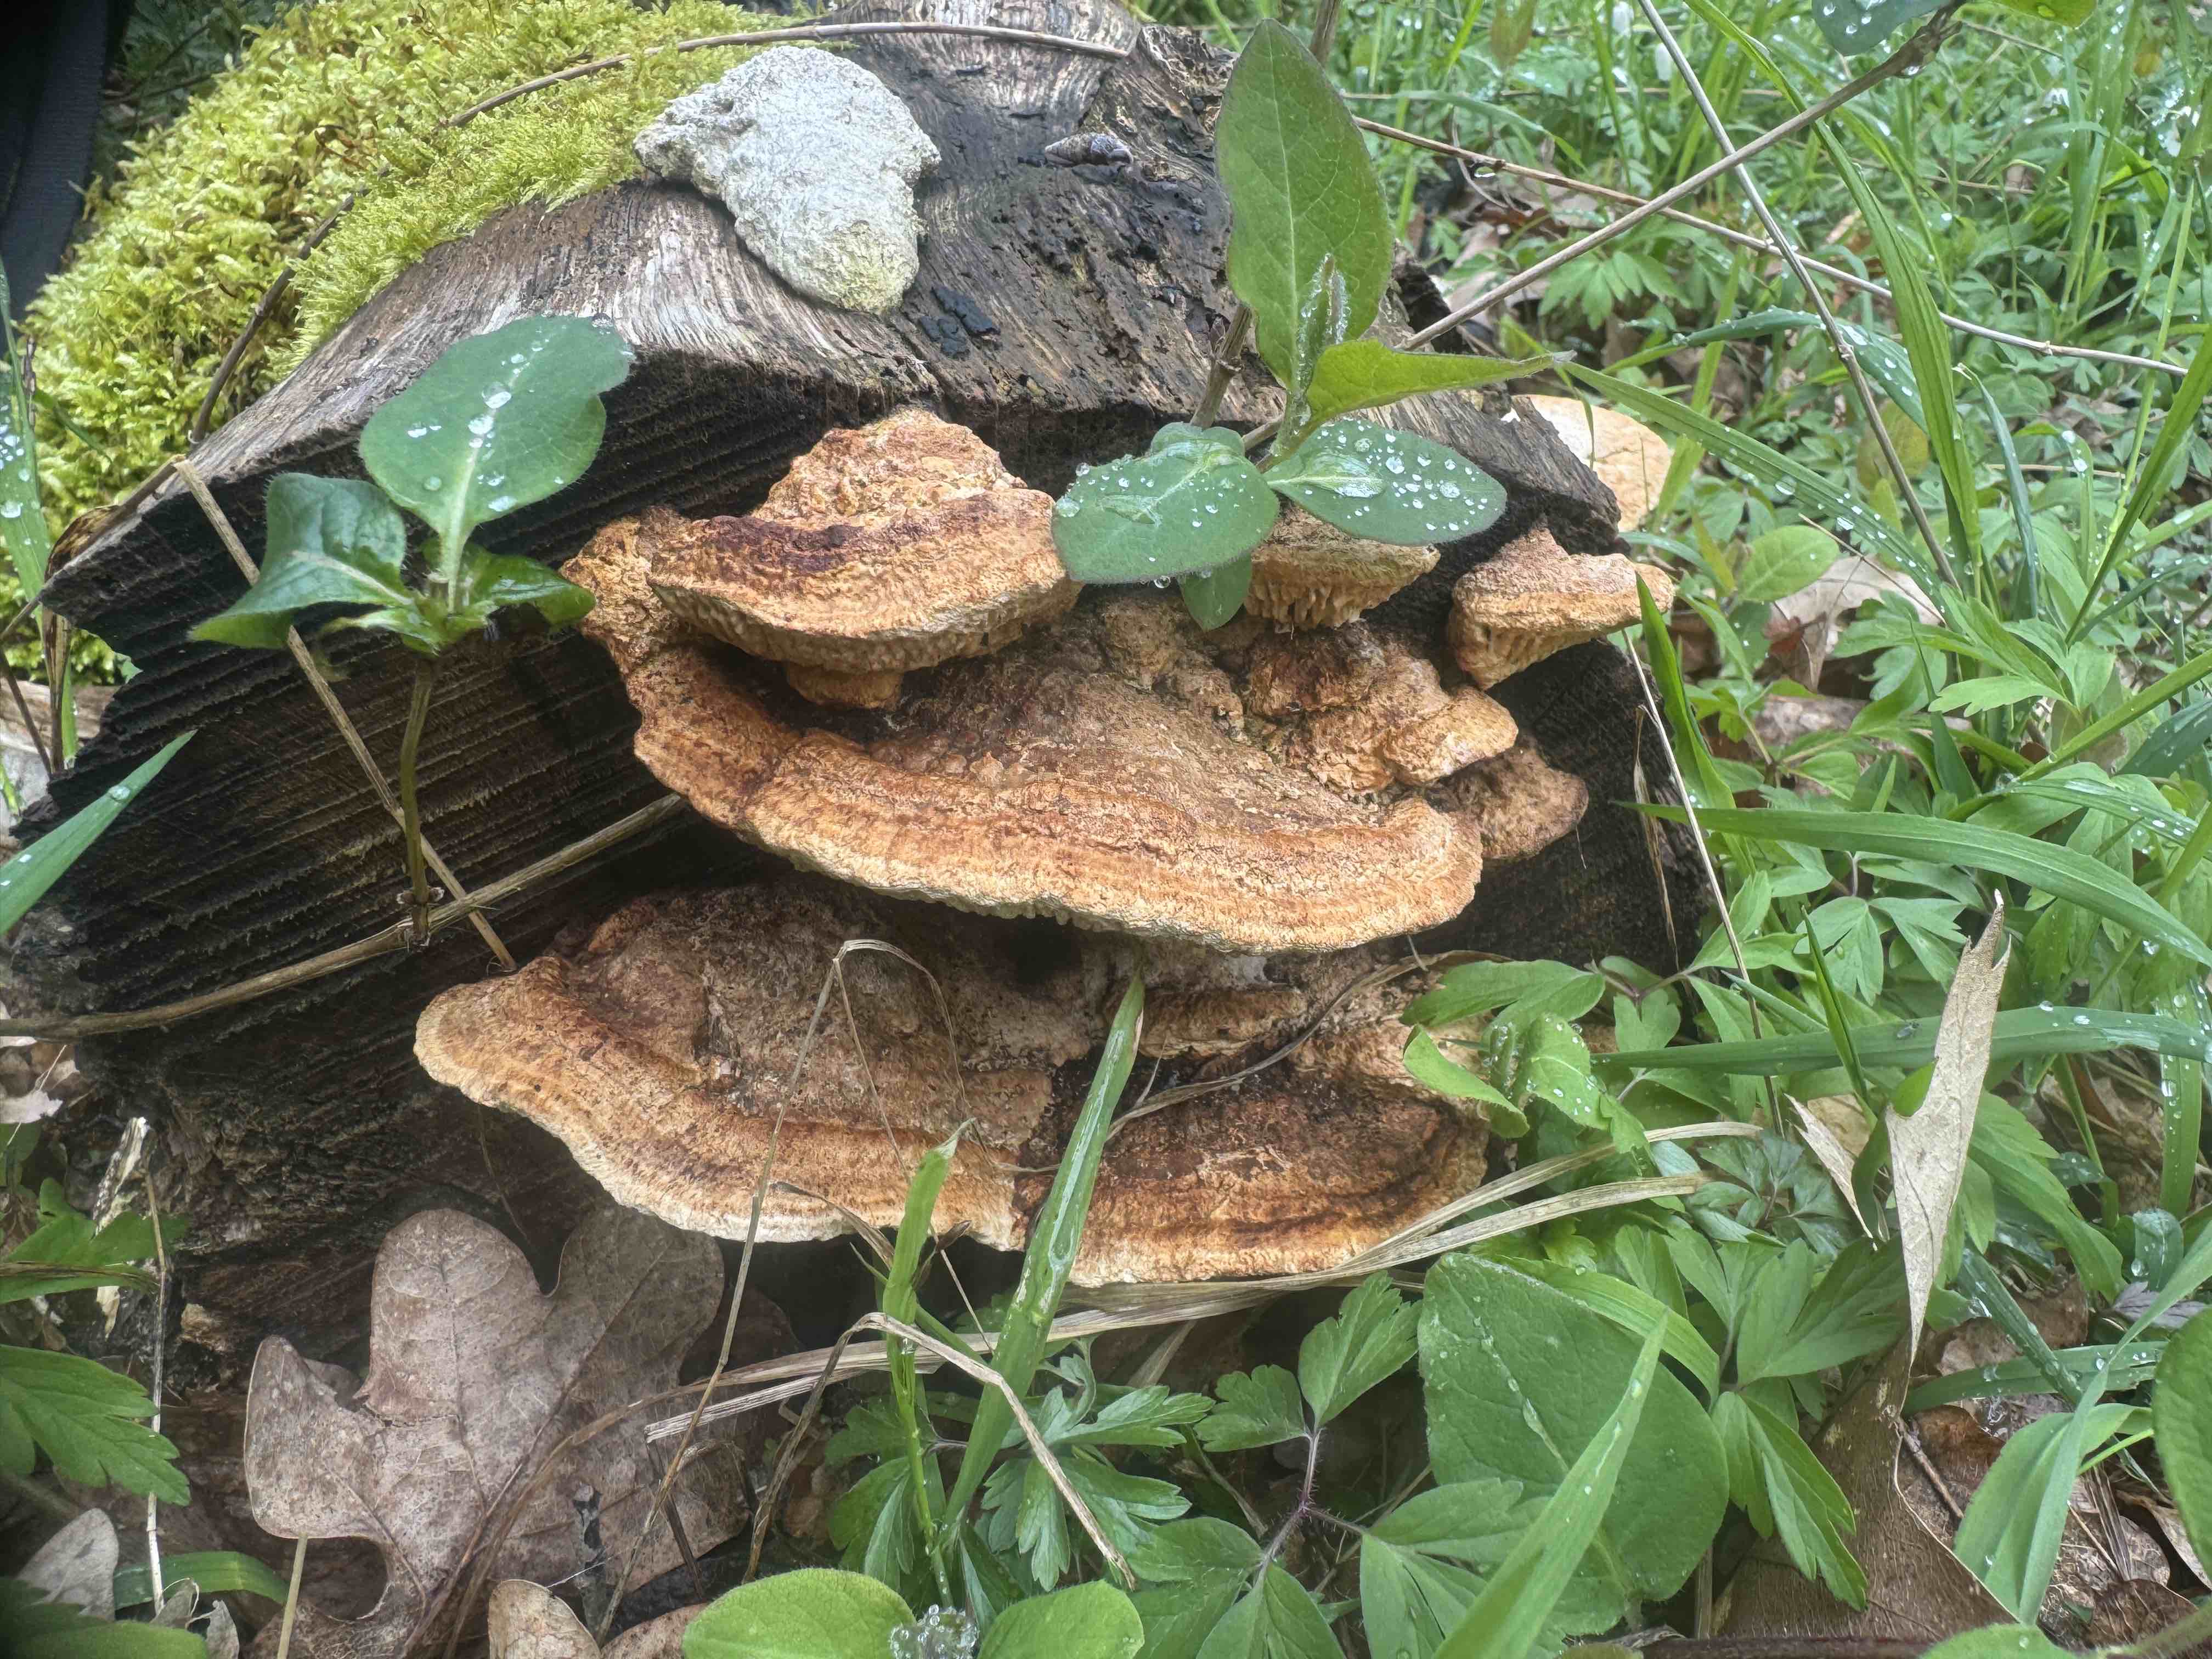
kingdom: Fungi
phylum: Basidiomycota
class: Agaricomycetes
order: Polyporales
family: Fomitopsidaceae
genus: Daedalea
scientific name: Daedalea quercina
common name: ege-labyrintsvamp
